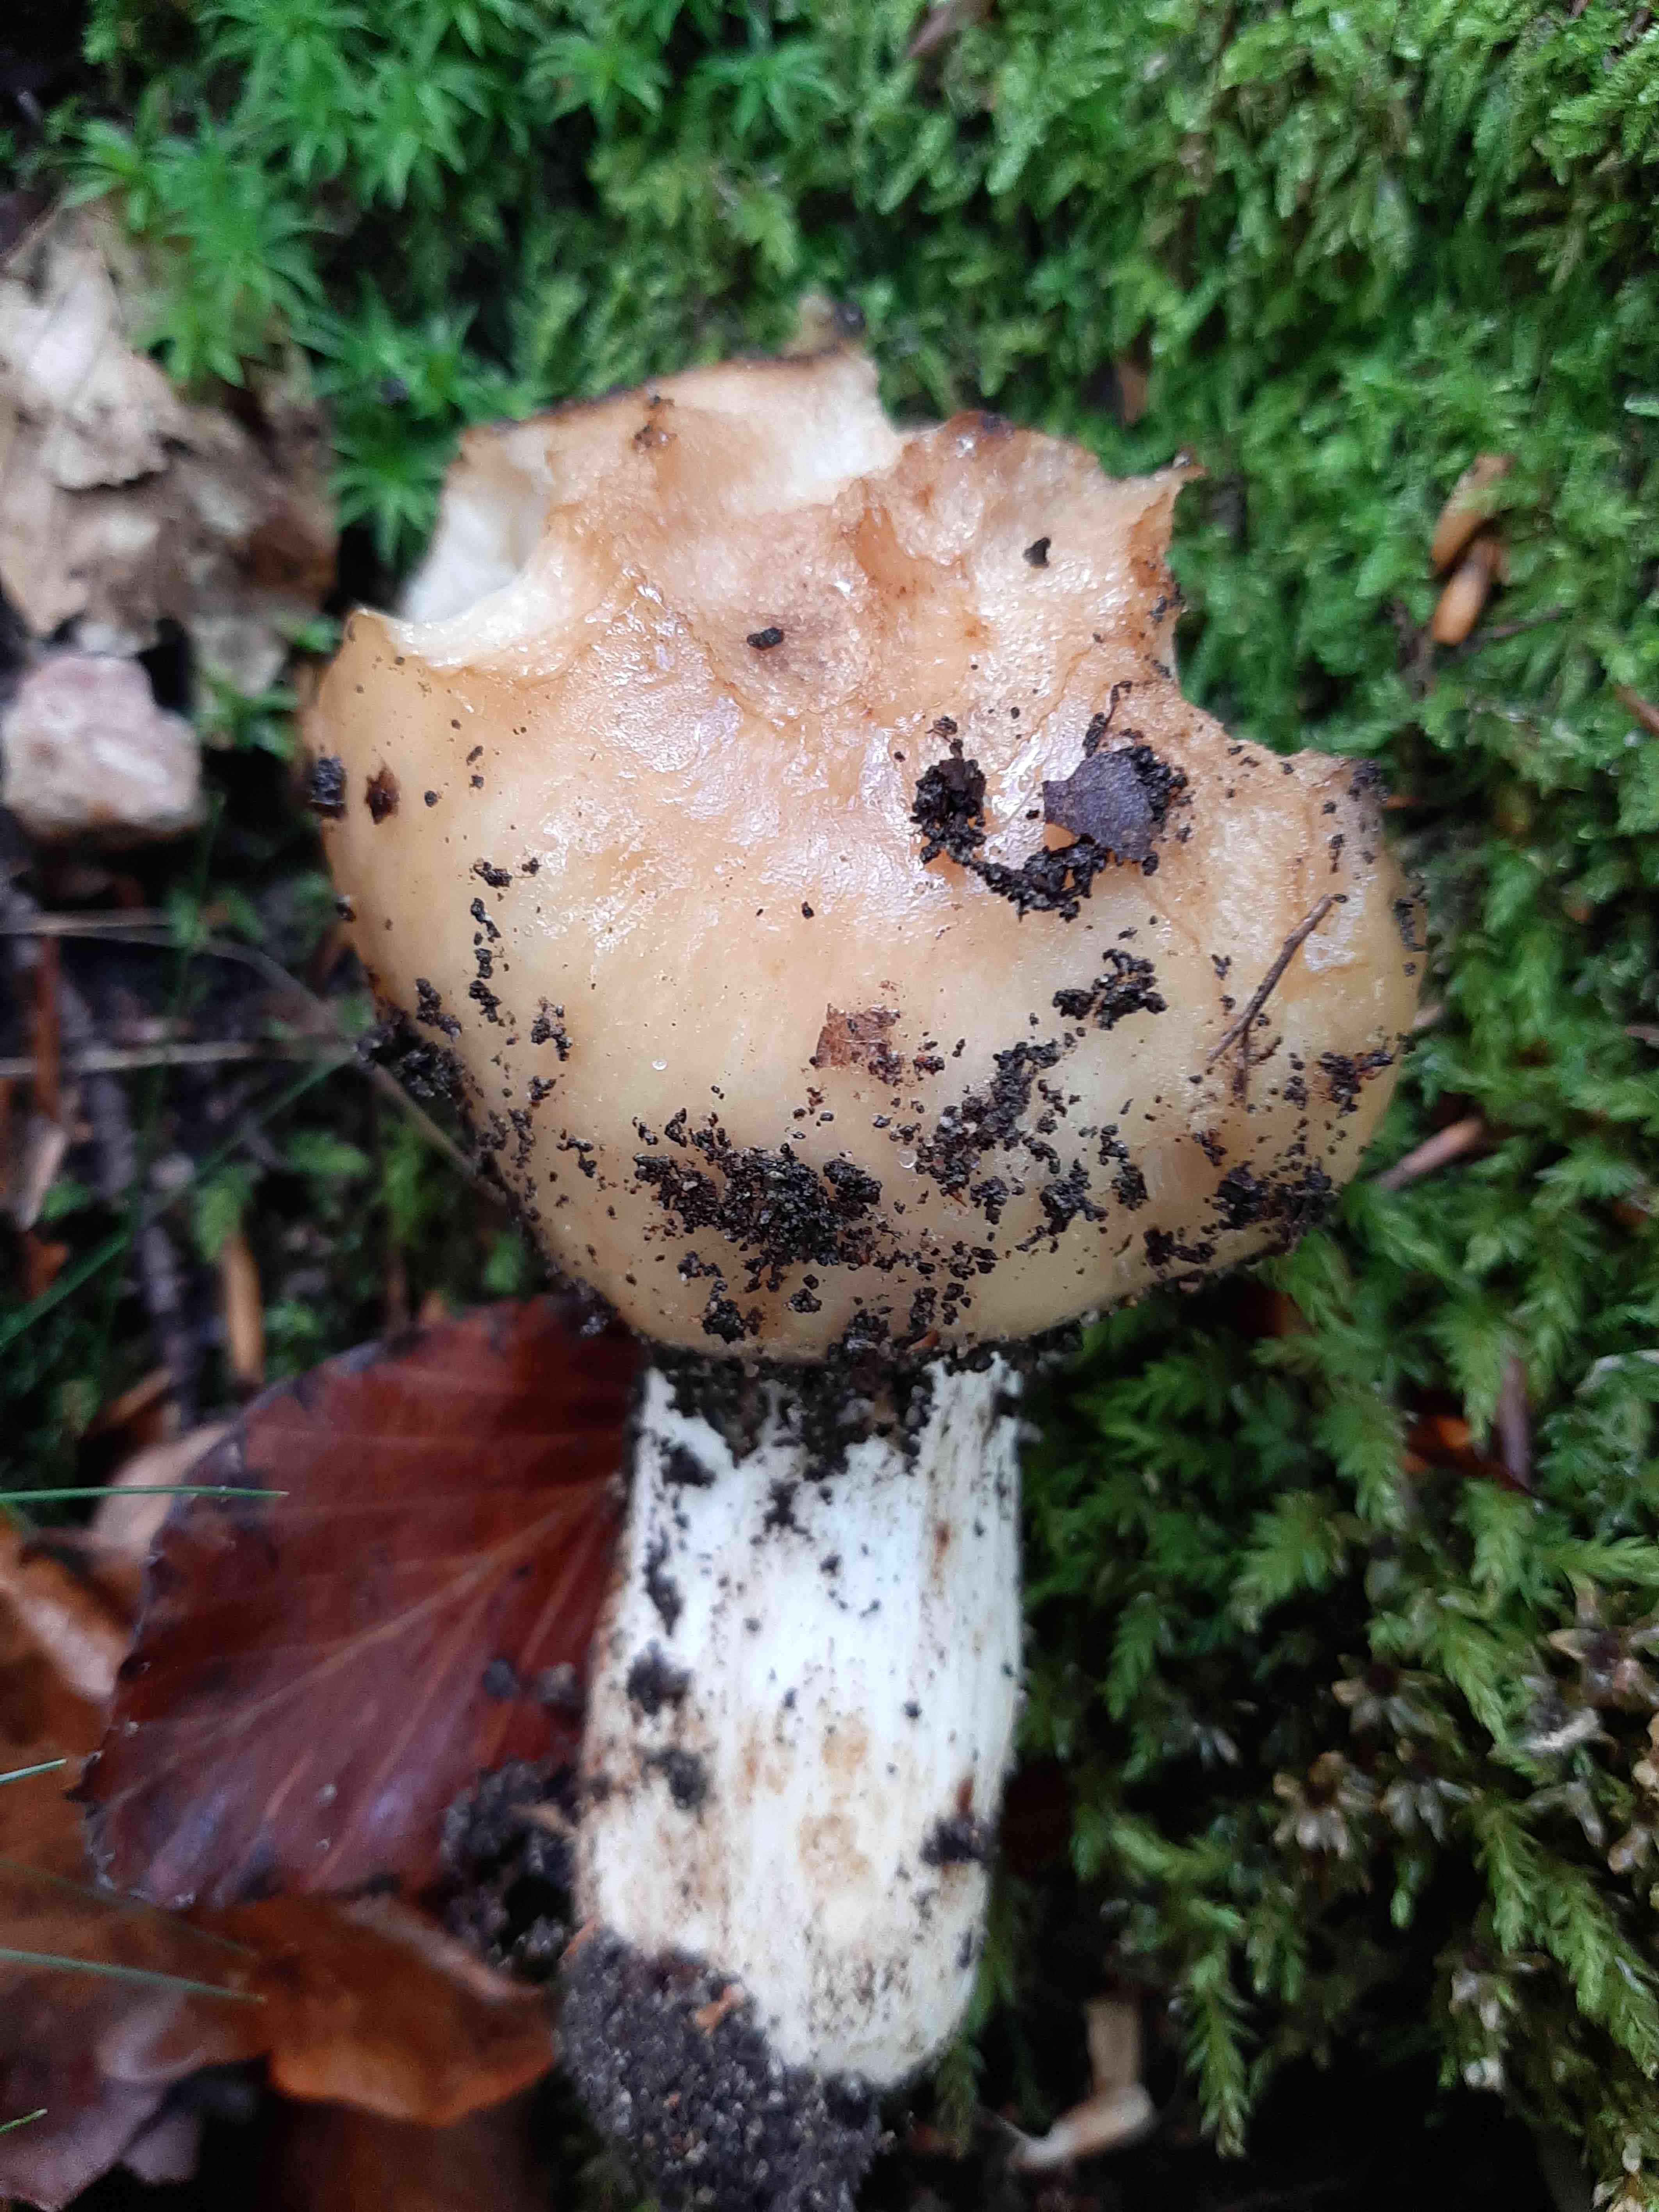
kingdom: Fungi
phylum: Basidiomycota
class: Agaricomycetes
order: Russulales
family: Russulaceae
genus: Russula
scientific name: Russula grata
